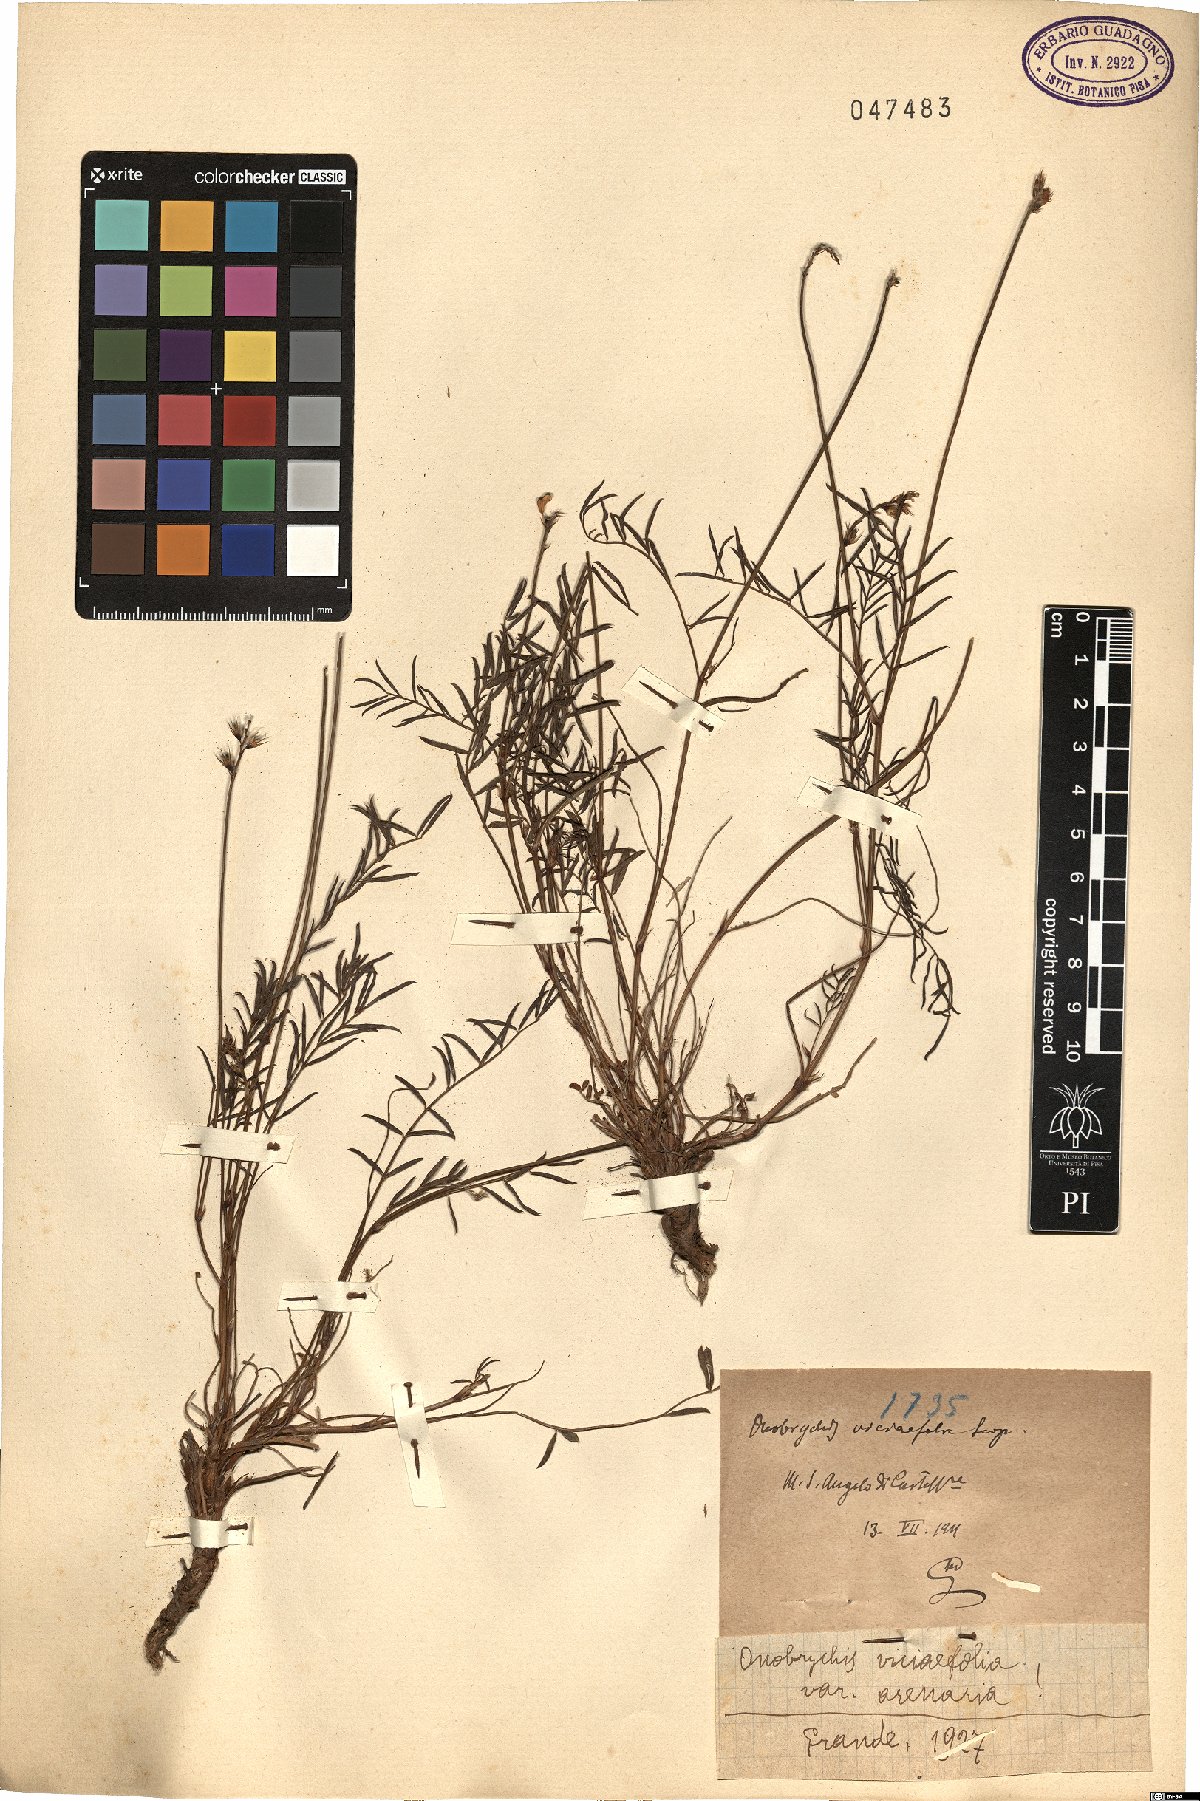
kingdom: Plantae
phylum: Tracheophyta
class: Magnoliopsida
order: Fabales
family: Fabaceae
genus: Onobrychis
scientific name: Onobrychis arenaria
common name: Sand esparcet
